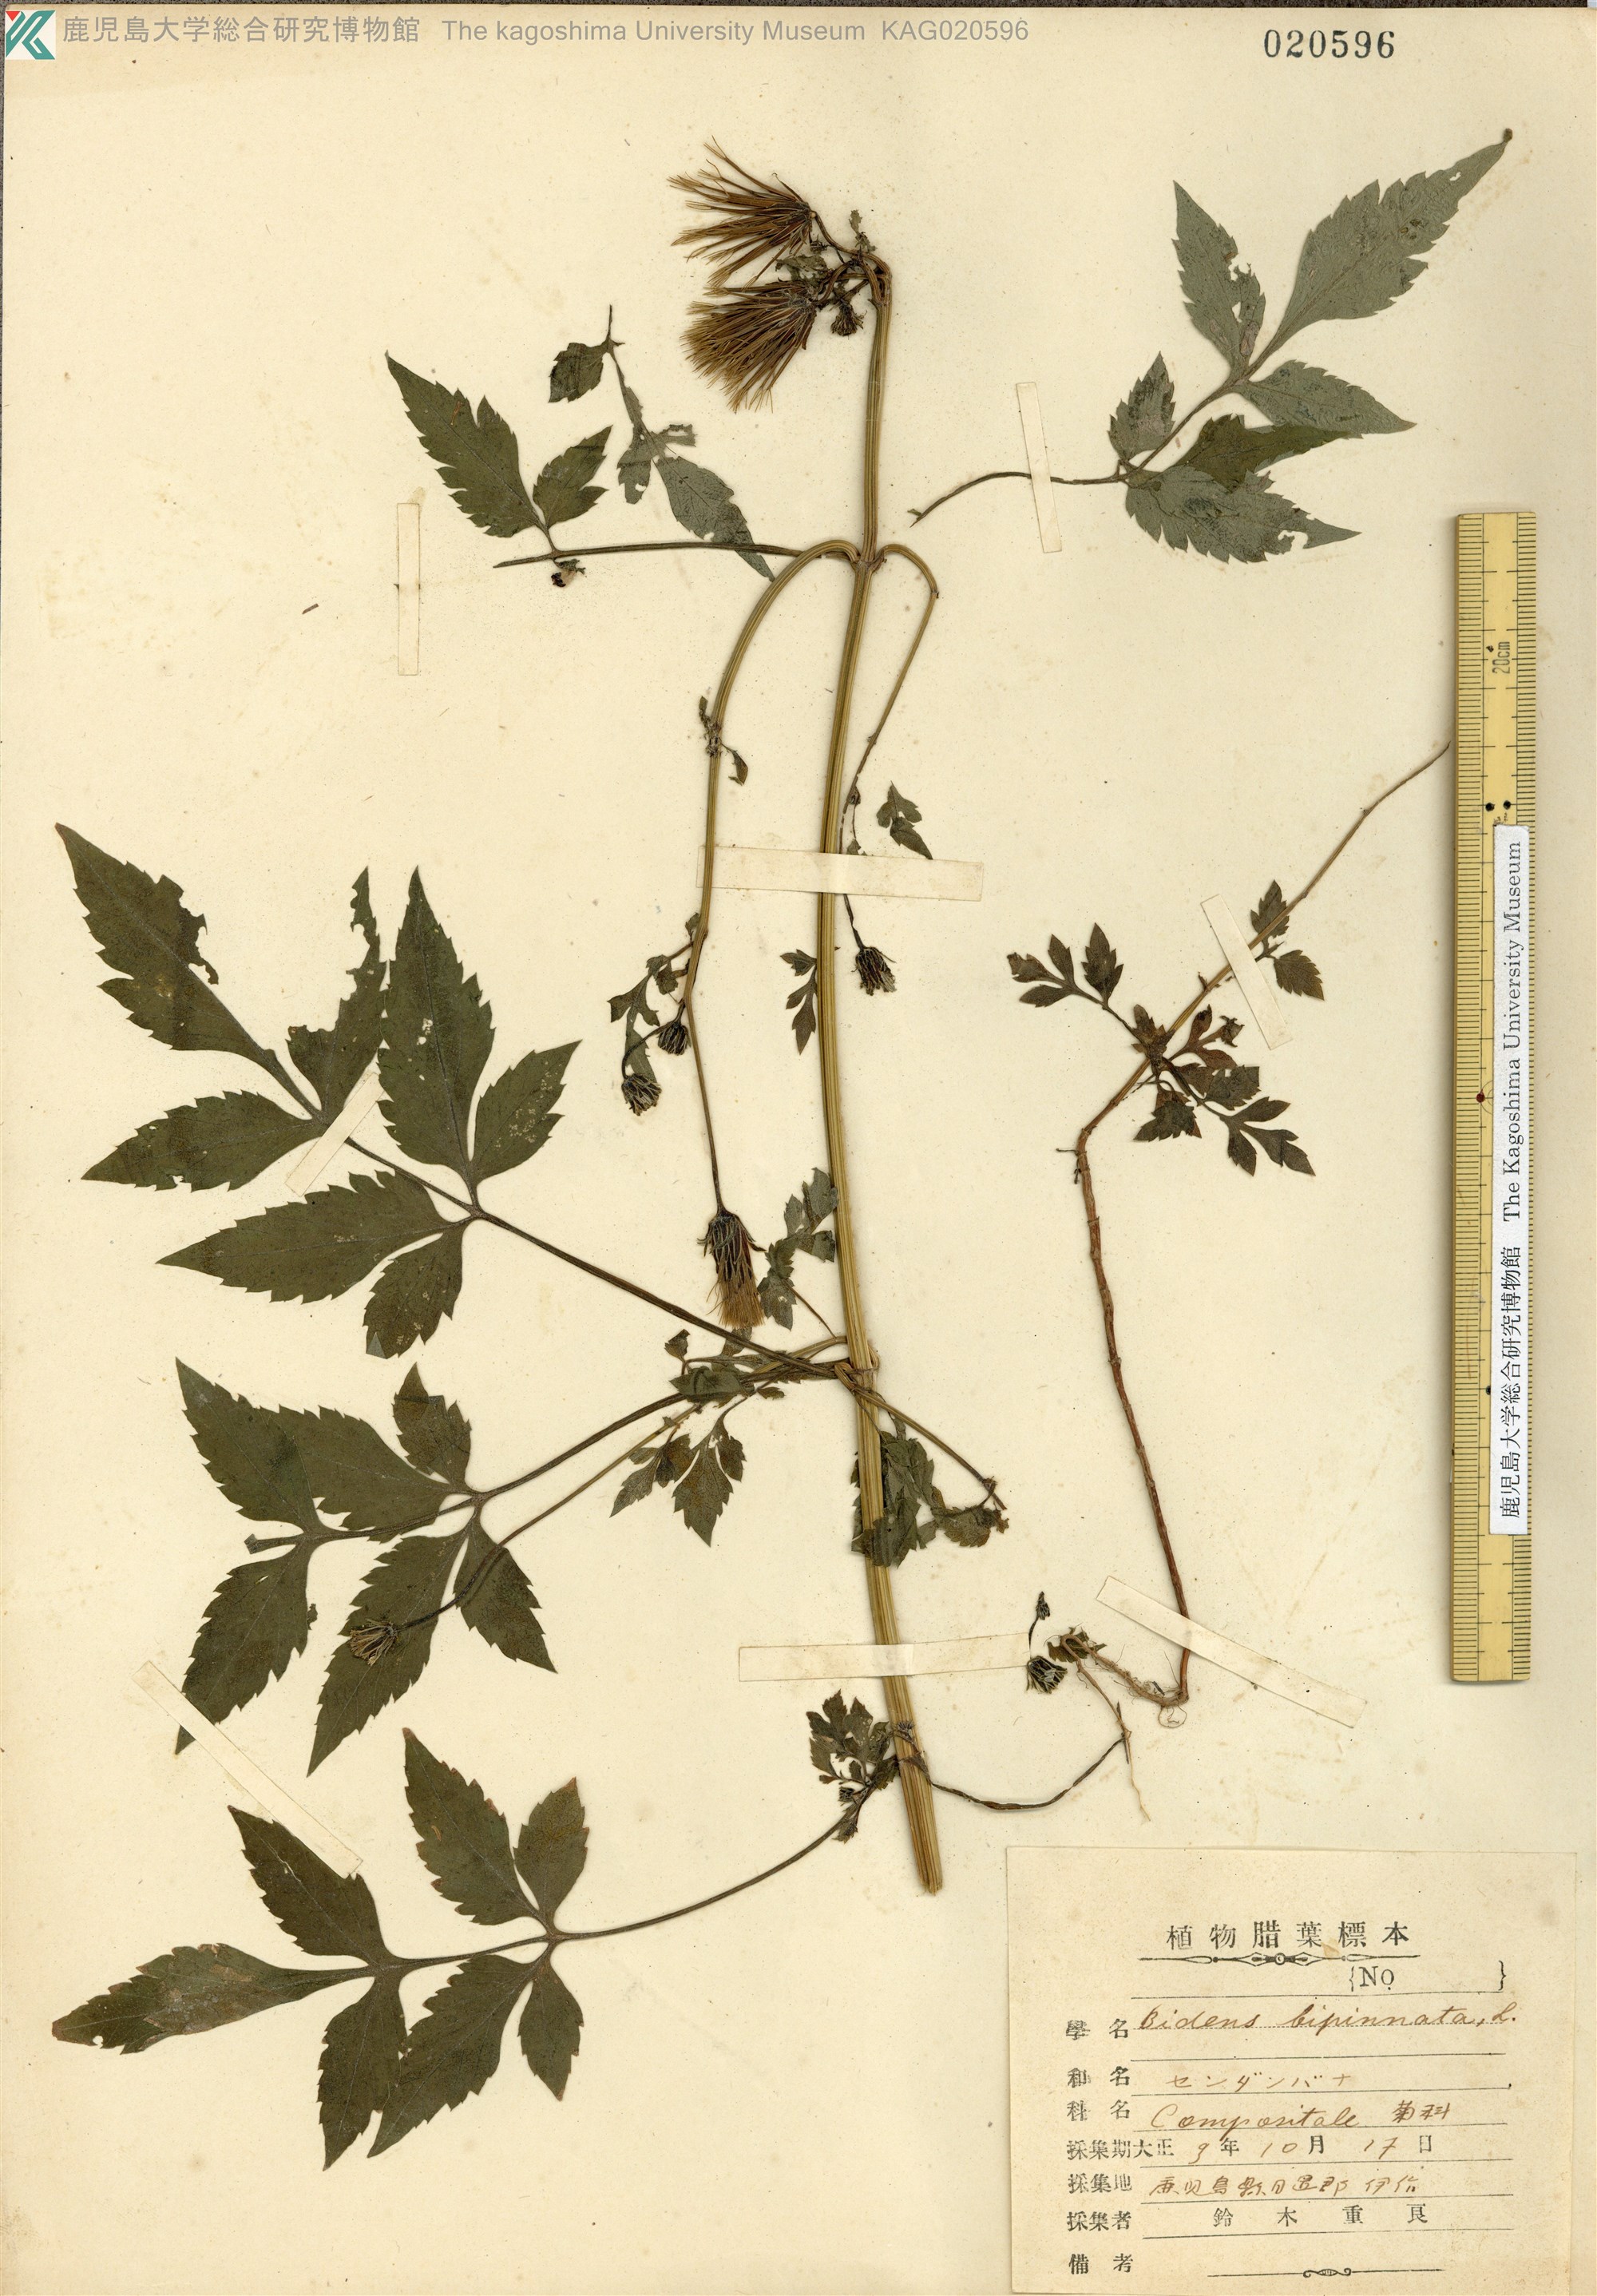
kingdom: Plantae
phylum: Tracheophyta
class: Magnoliopsida
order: Asterales
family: Asteraceae
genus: Bidens
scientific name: Bidens biternata
